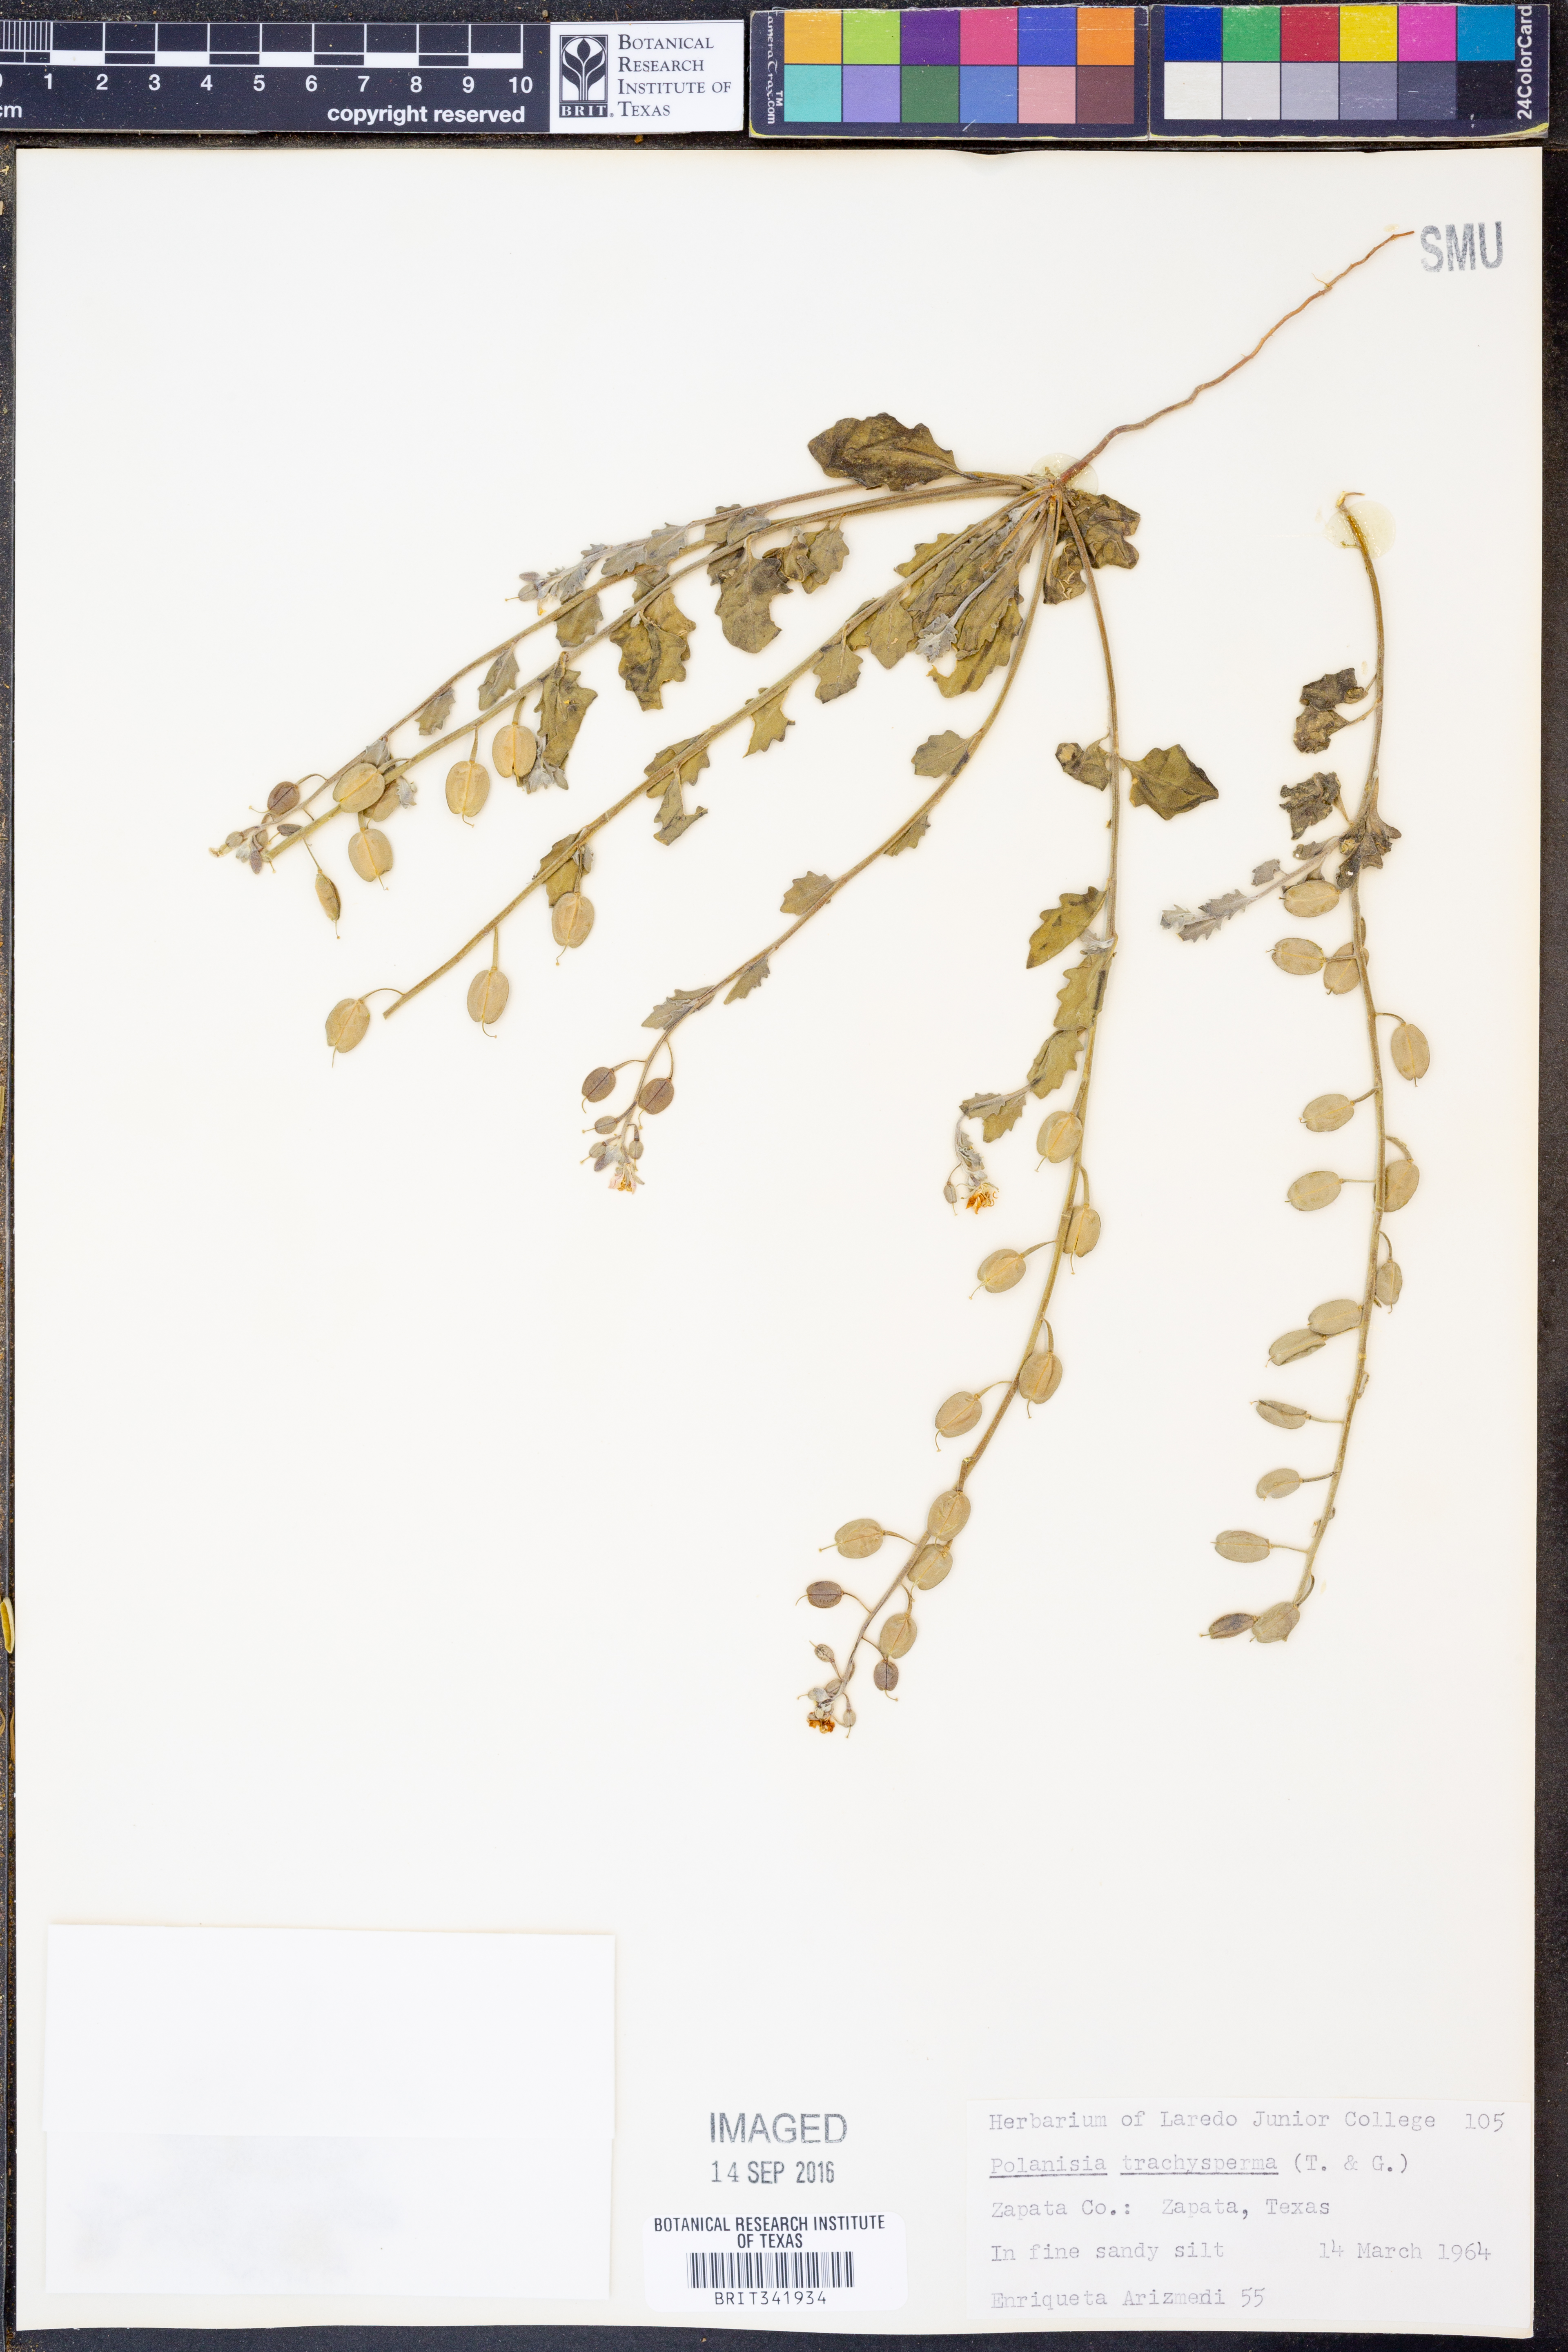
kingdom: Plantae
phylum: Tracheophyta
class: Magnoliopsida
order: Brassicales
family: Cleomaceae
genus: Polanisia
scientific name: Polanisia trachysperma
